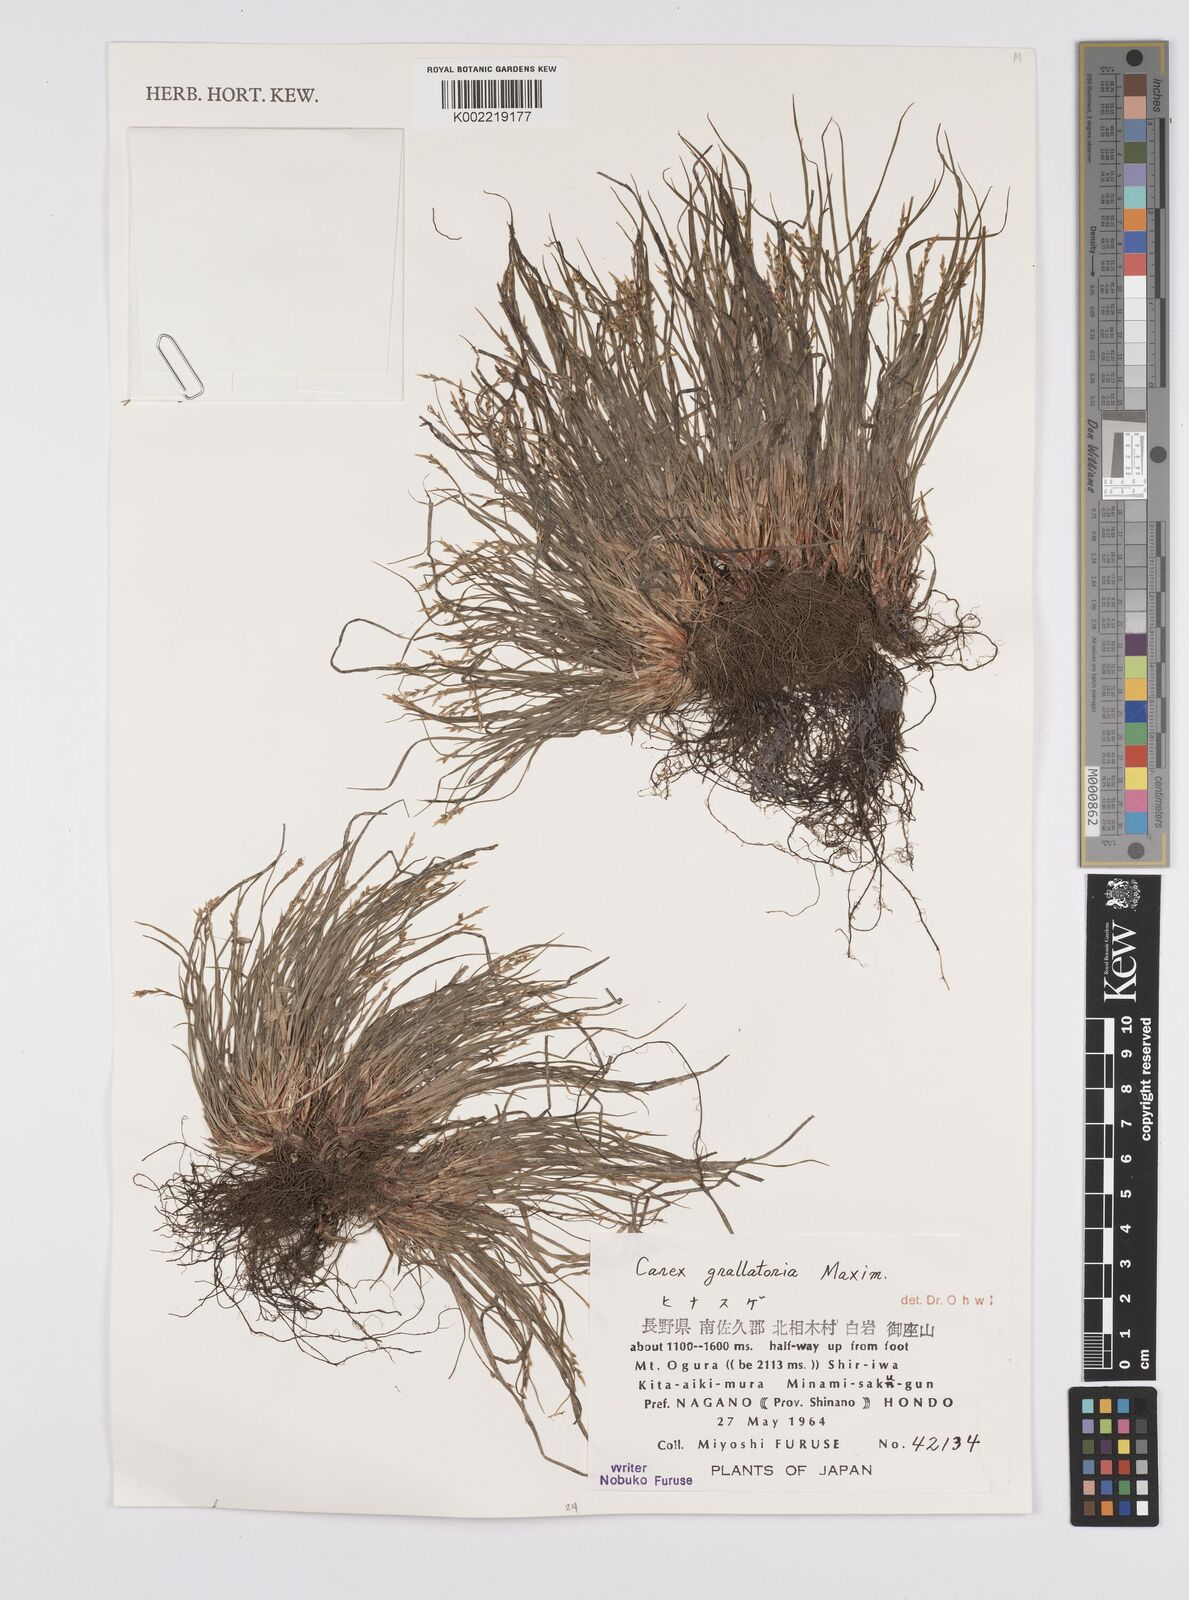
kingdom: Plantae
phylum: Tracheophyta
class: Liliopsida
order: Poales
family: Cyperaceae
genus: Carex
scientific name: Carex grallatoria
